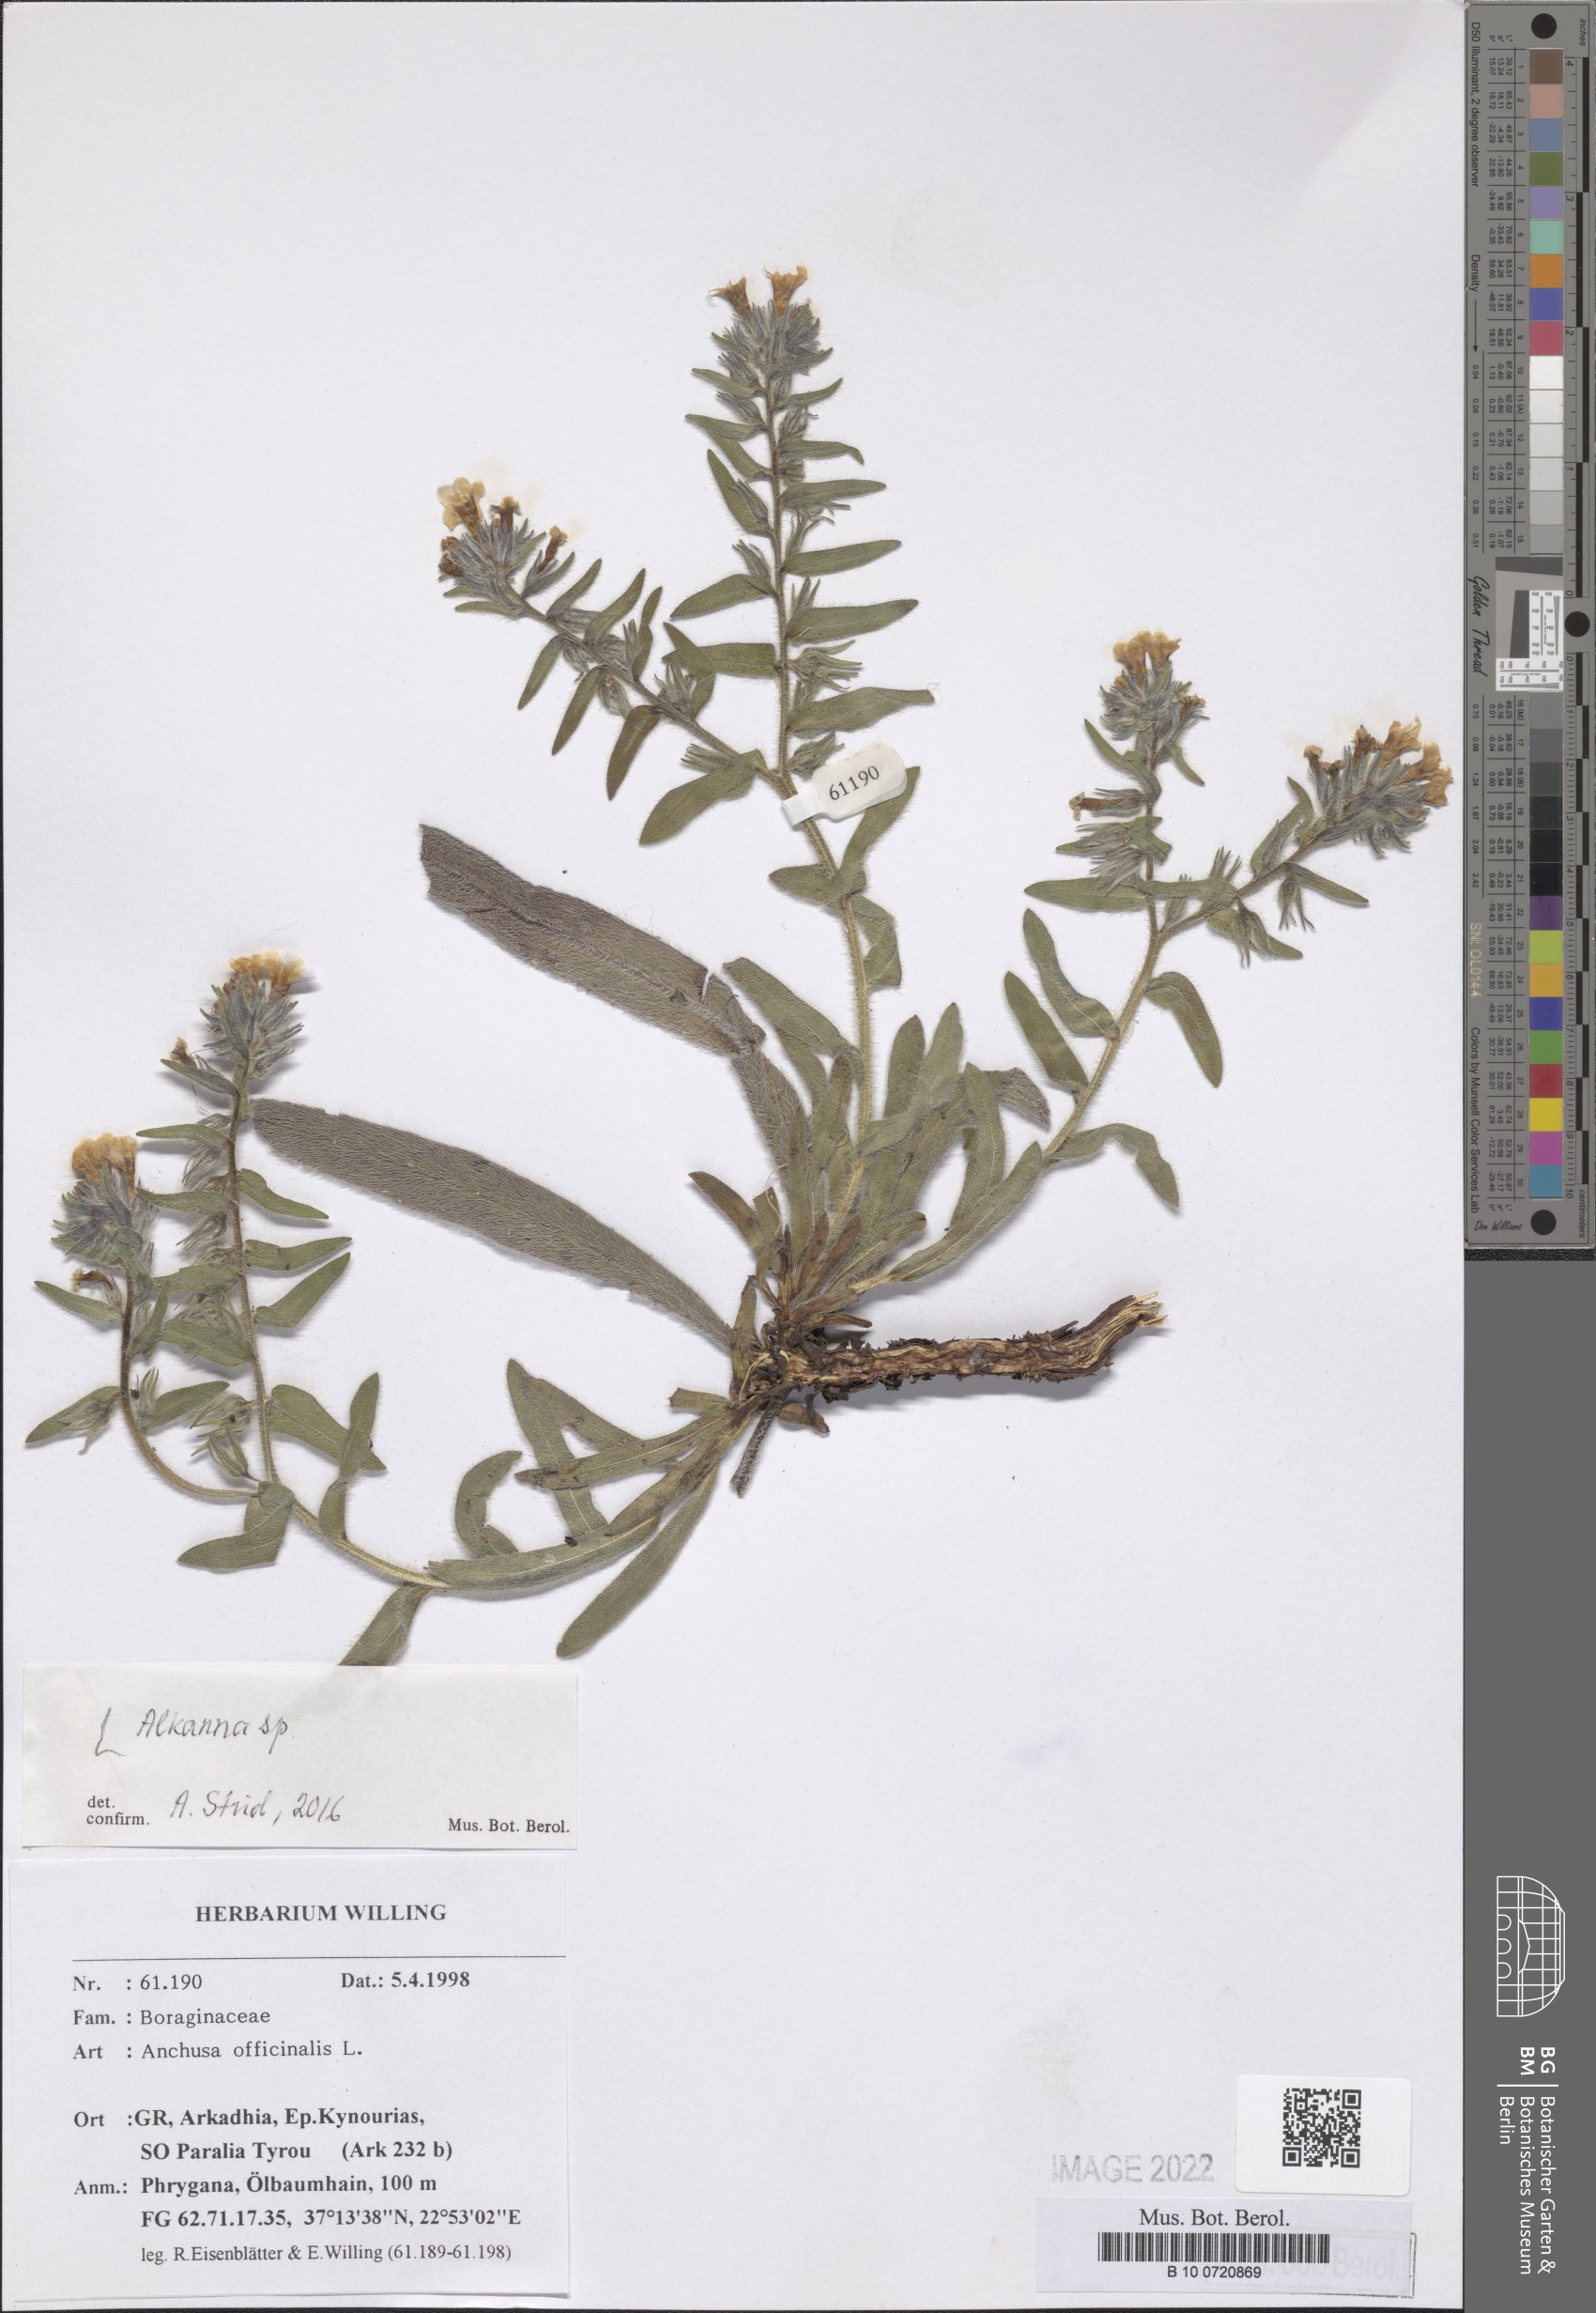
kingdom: Plantae
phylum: Tracheophyta
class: Magnoliopsida
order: Boraginales
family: Boraginaceae
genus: Anchusa
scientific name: Anchusa
